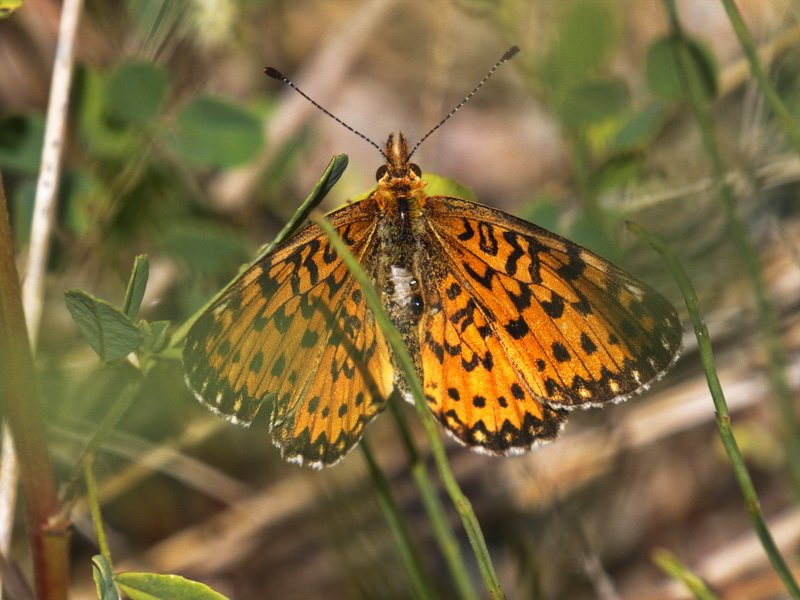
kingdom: Animalia
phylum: Arthropoda
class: Insecta
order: Lepidoptera
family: Nymphalidae
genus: Boloria
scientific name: Boloria selene
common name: Silver-bordered Fritillary
